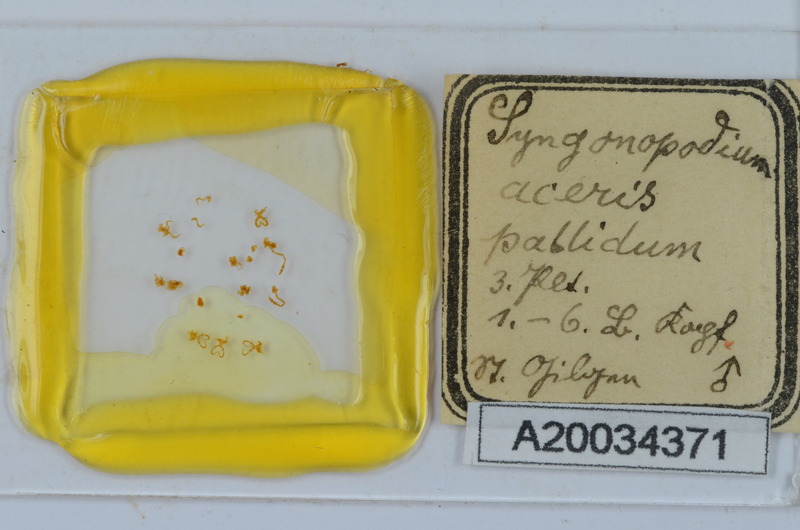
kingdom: Animalia
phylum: Arthropoda
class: Diplopoda
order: Chordeumatida
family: Attemsiidae
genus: Syngonopodium
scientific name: Syngonopodium aceris
